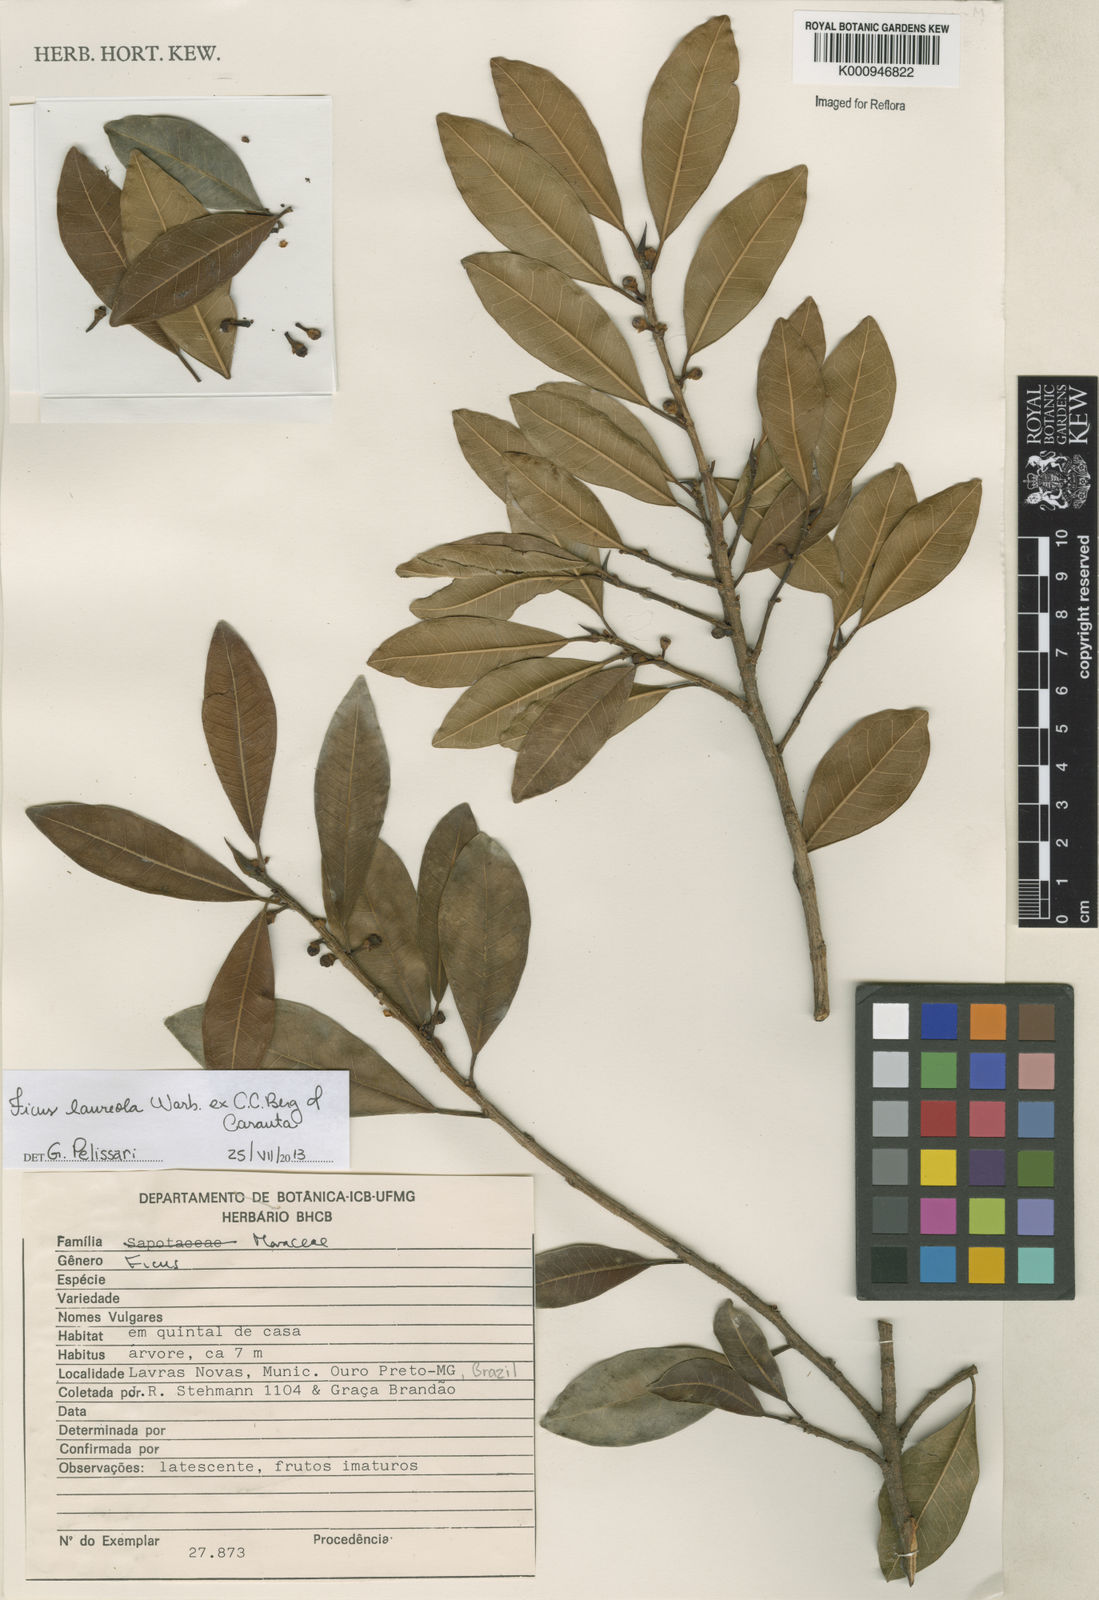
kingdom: Plantae
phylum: Tracheophyta
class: Magnoliopsida
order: Rosales
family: Moraceae
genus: Ficus
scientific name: Ficus laureola
